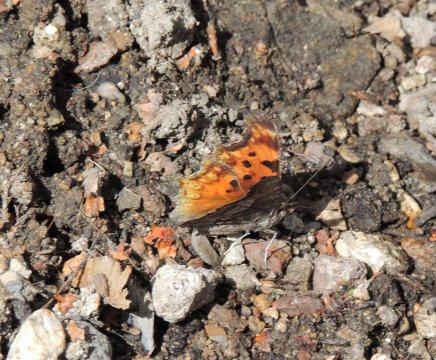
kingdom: Animalia
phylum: Arthropoda
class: Insecta
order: Lepidoptera
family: Nymphalidae
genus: Polygonia
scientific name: Polygonia gracilis
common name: Hoary Comma
